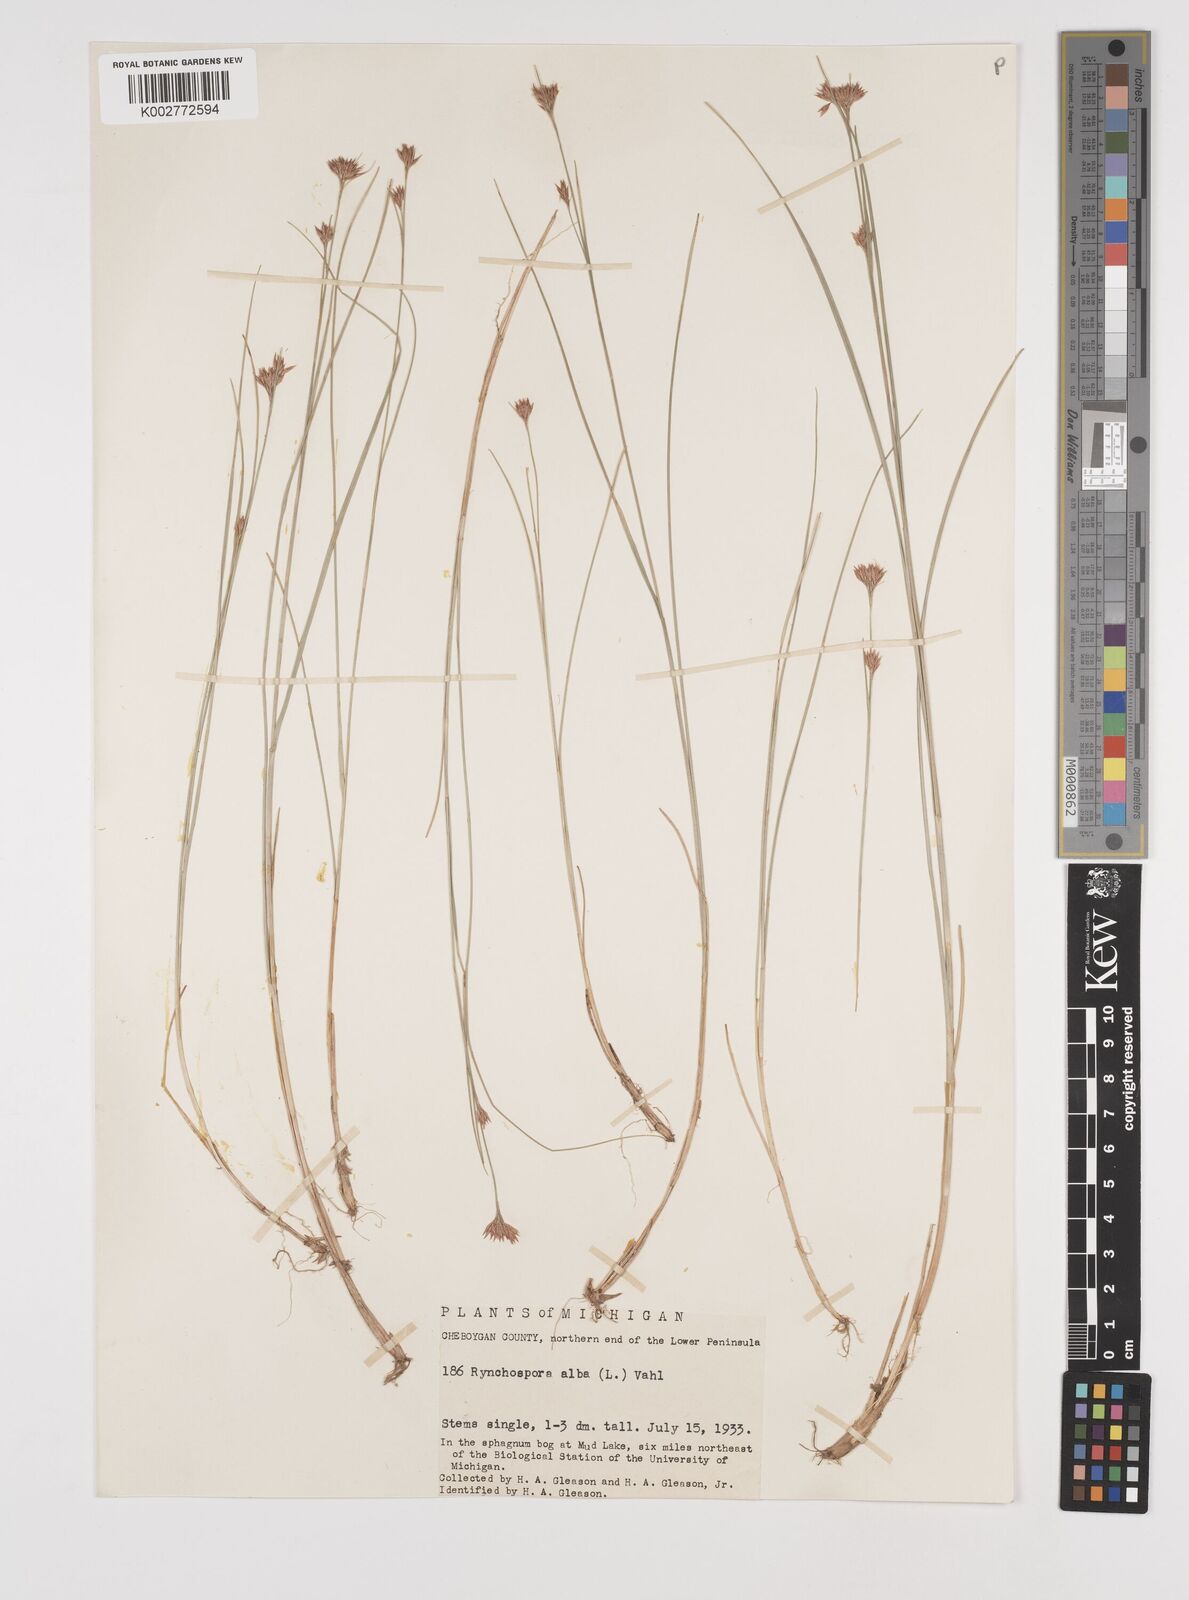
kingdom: Plantae
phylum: Tracheophyta
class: Liliopsida
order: Poales
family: Cyperaceae
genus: Rhynchospora
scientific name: Rhynchospora alba
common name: White beak-sedge
